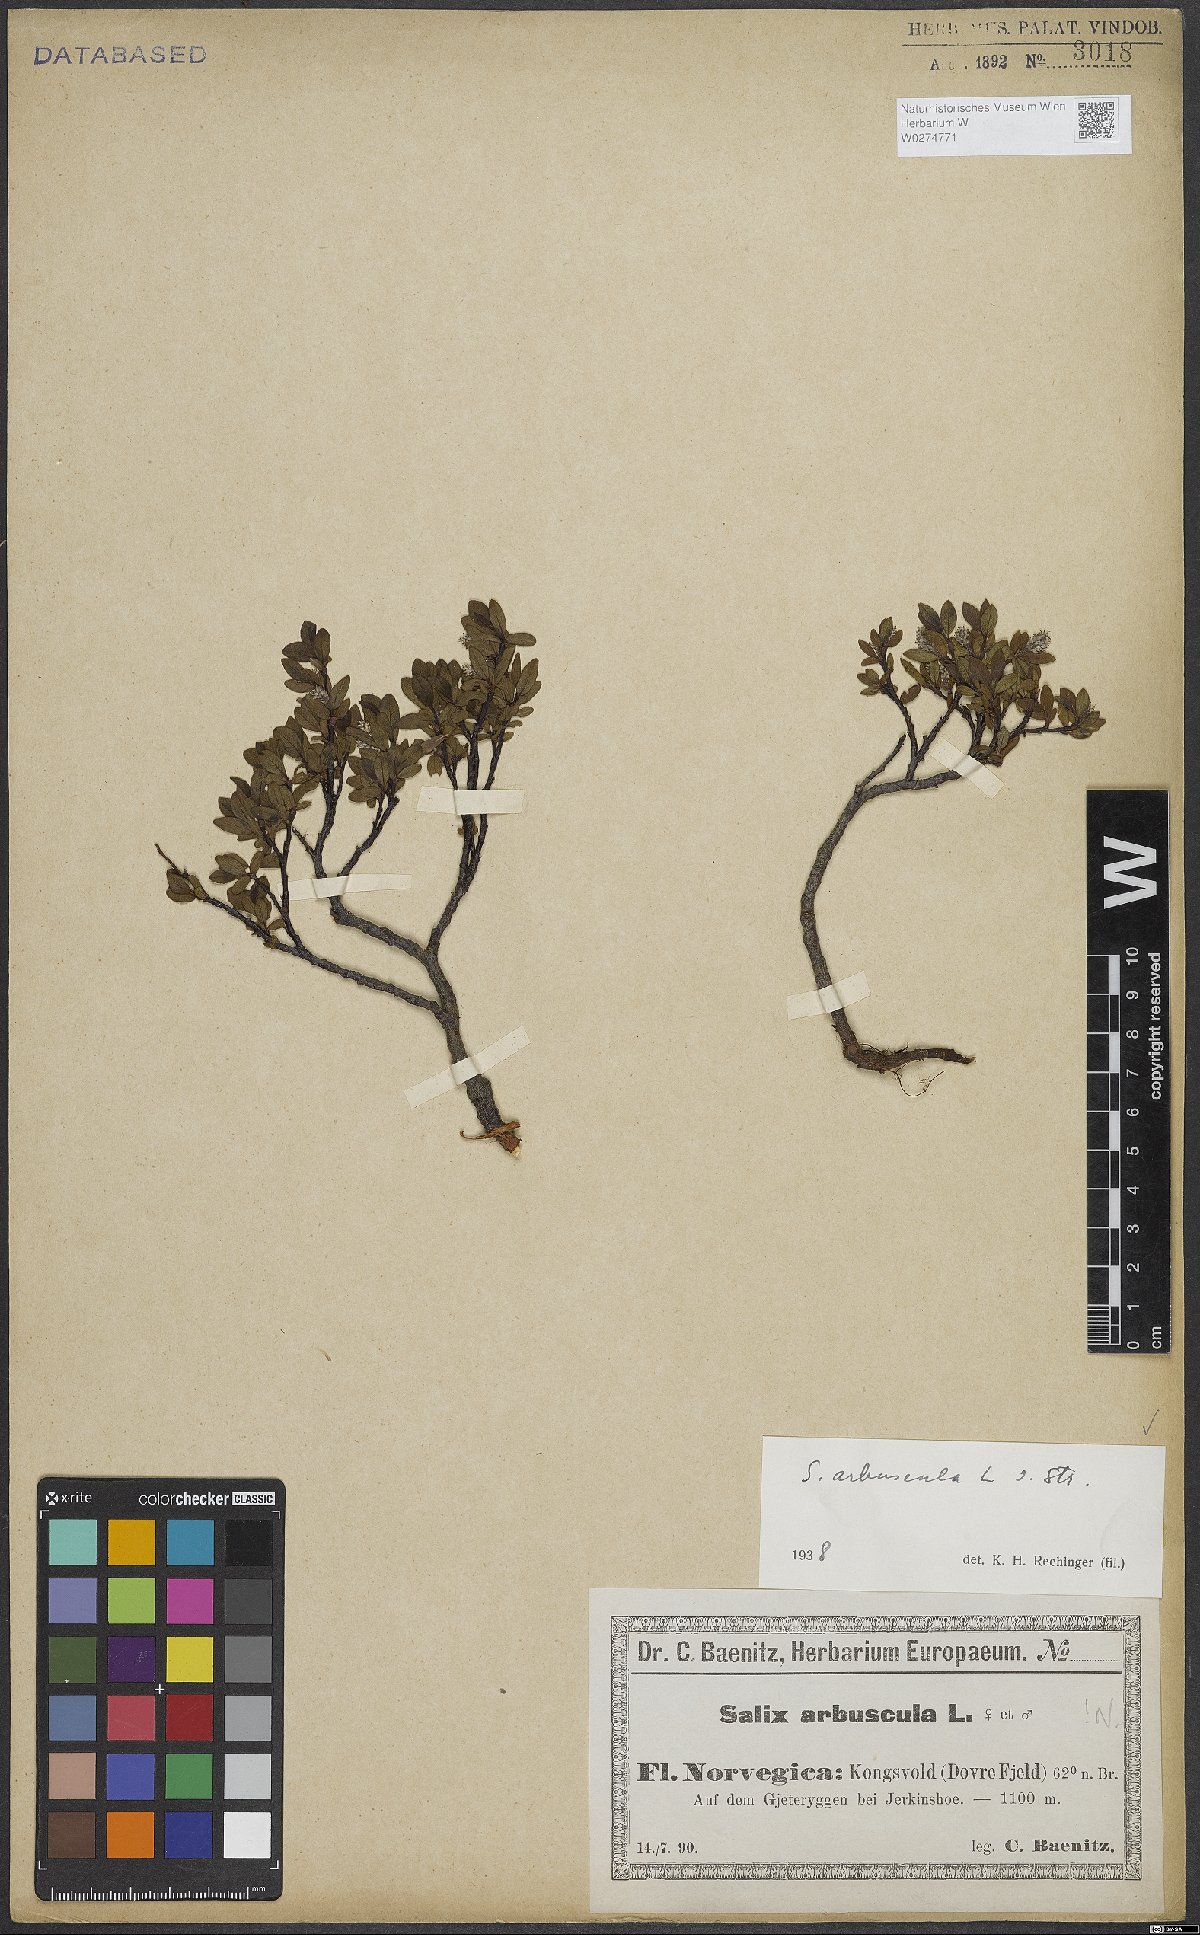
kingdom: Plantae
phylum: Tracheophyta
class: Magnoliopsida
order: Malpighiales
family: Salicaceae
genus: Salix
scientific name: Salix arbuscula
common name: Mountain willow
